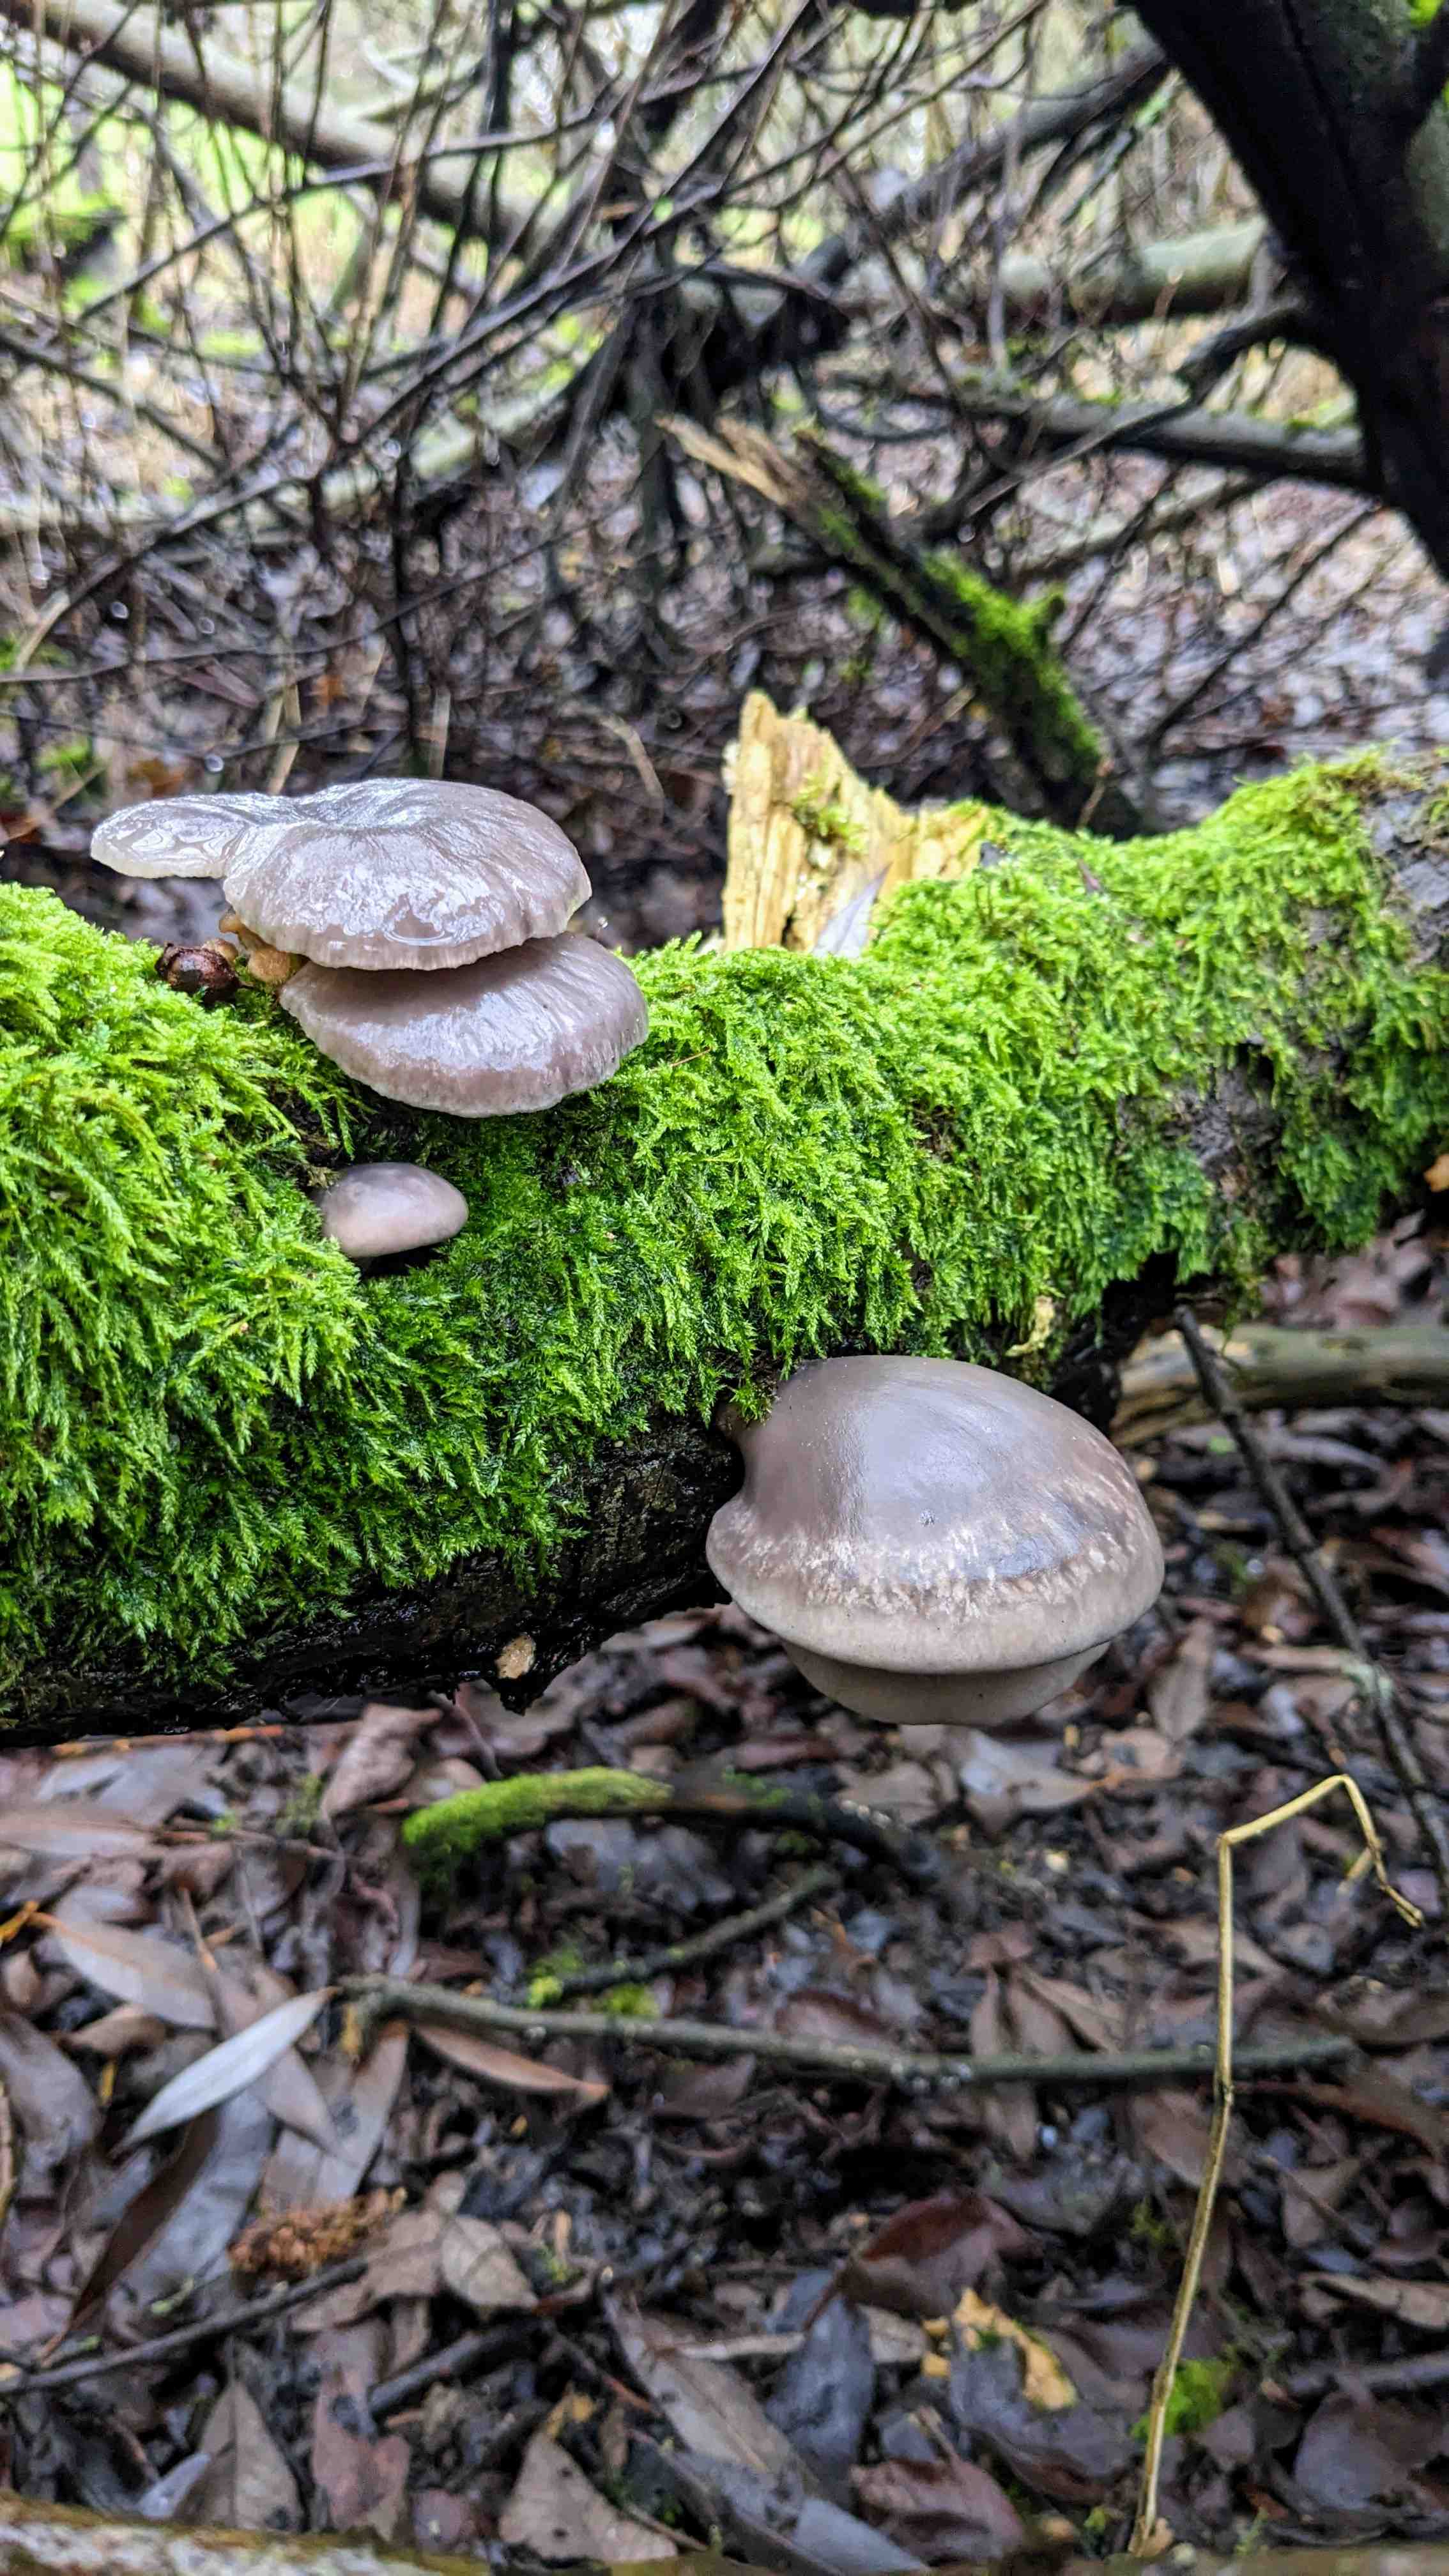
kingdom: Fungi
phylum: Basidiomycota
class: Agaricomycetes
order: Agaricales
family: Pleurotaceae
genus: Pleurotus
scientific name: Pleurotus ostreatus
